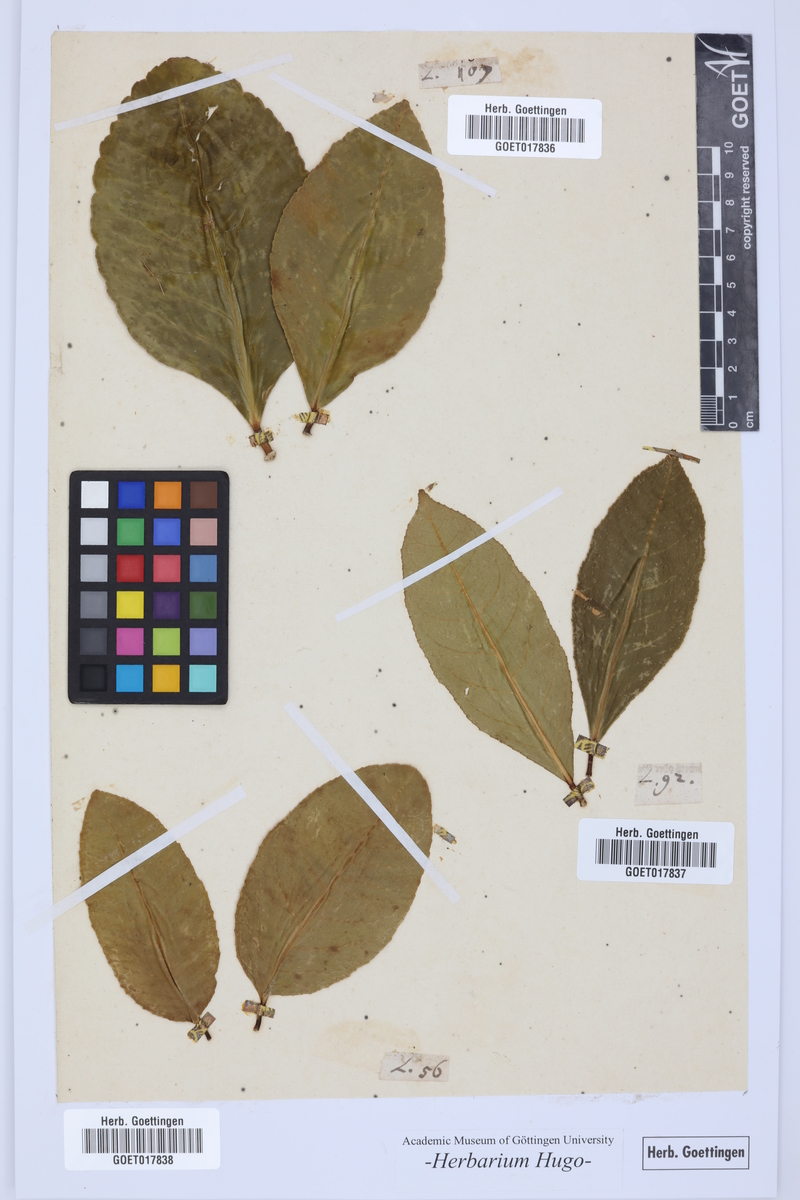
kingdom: Plantae
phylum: Tracheophyta
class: Magnoliopsida
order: Sapindales
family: Rutaceae
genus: Citrus
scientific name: Citrus
